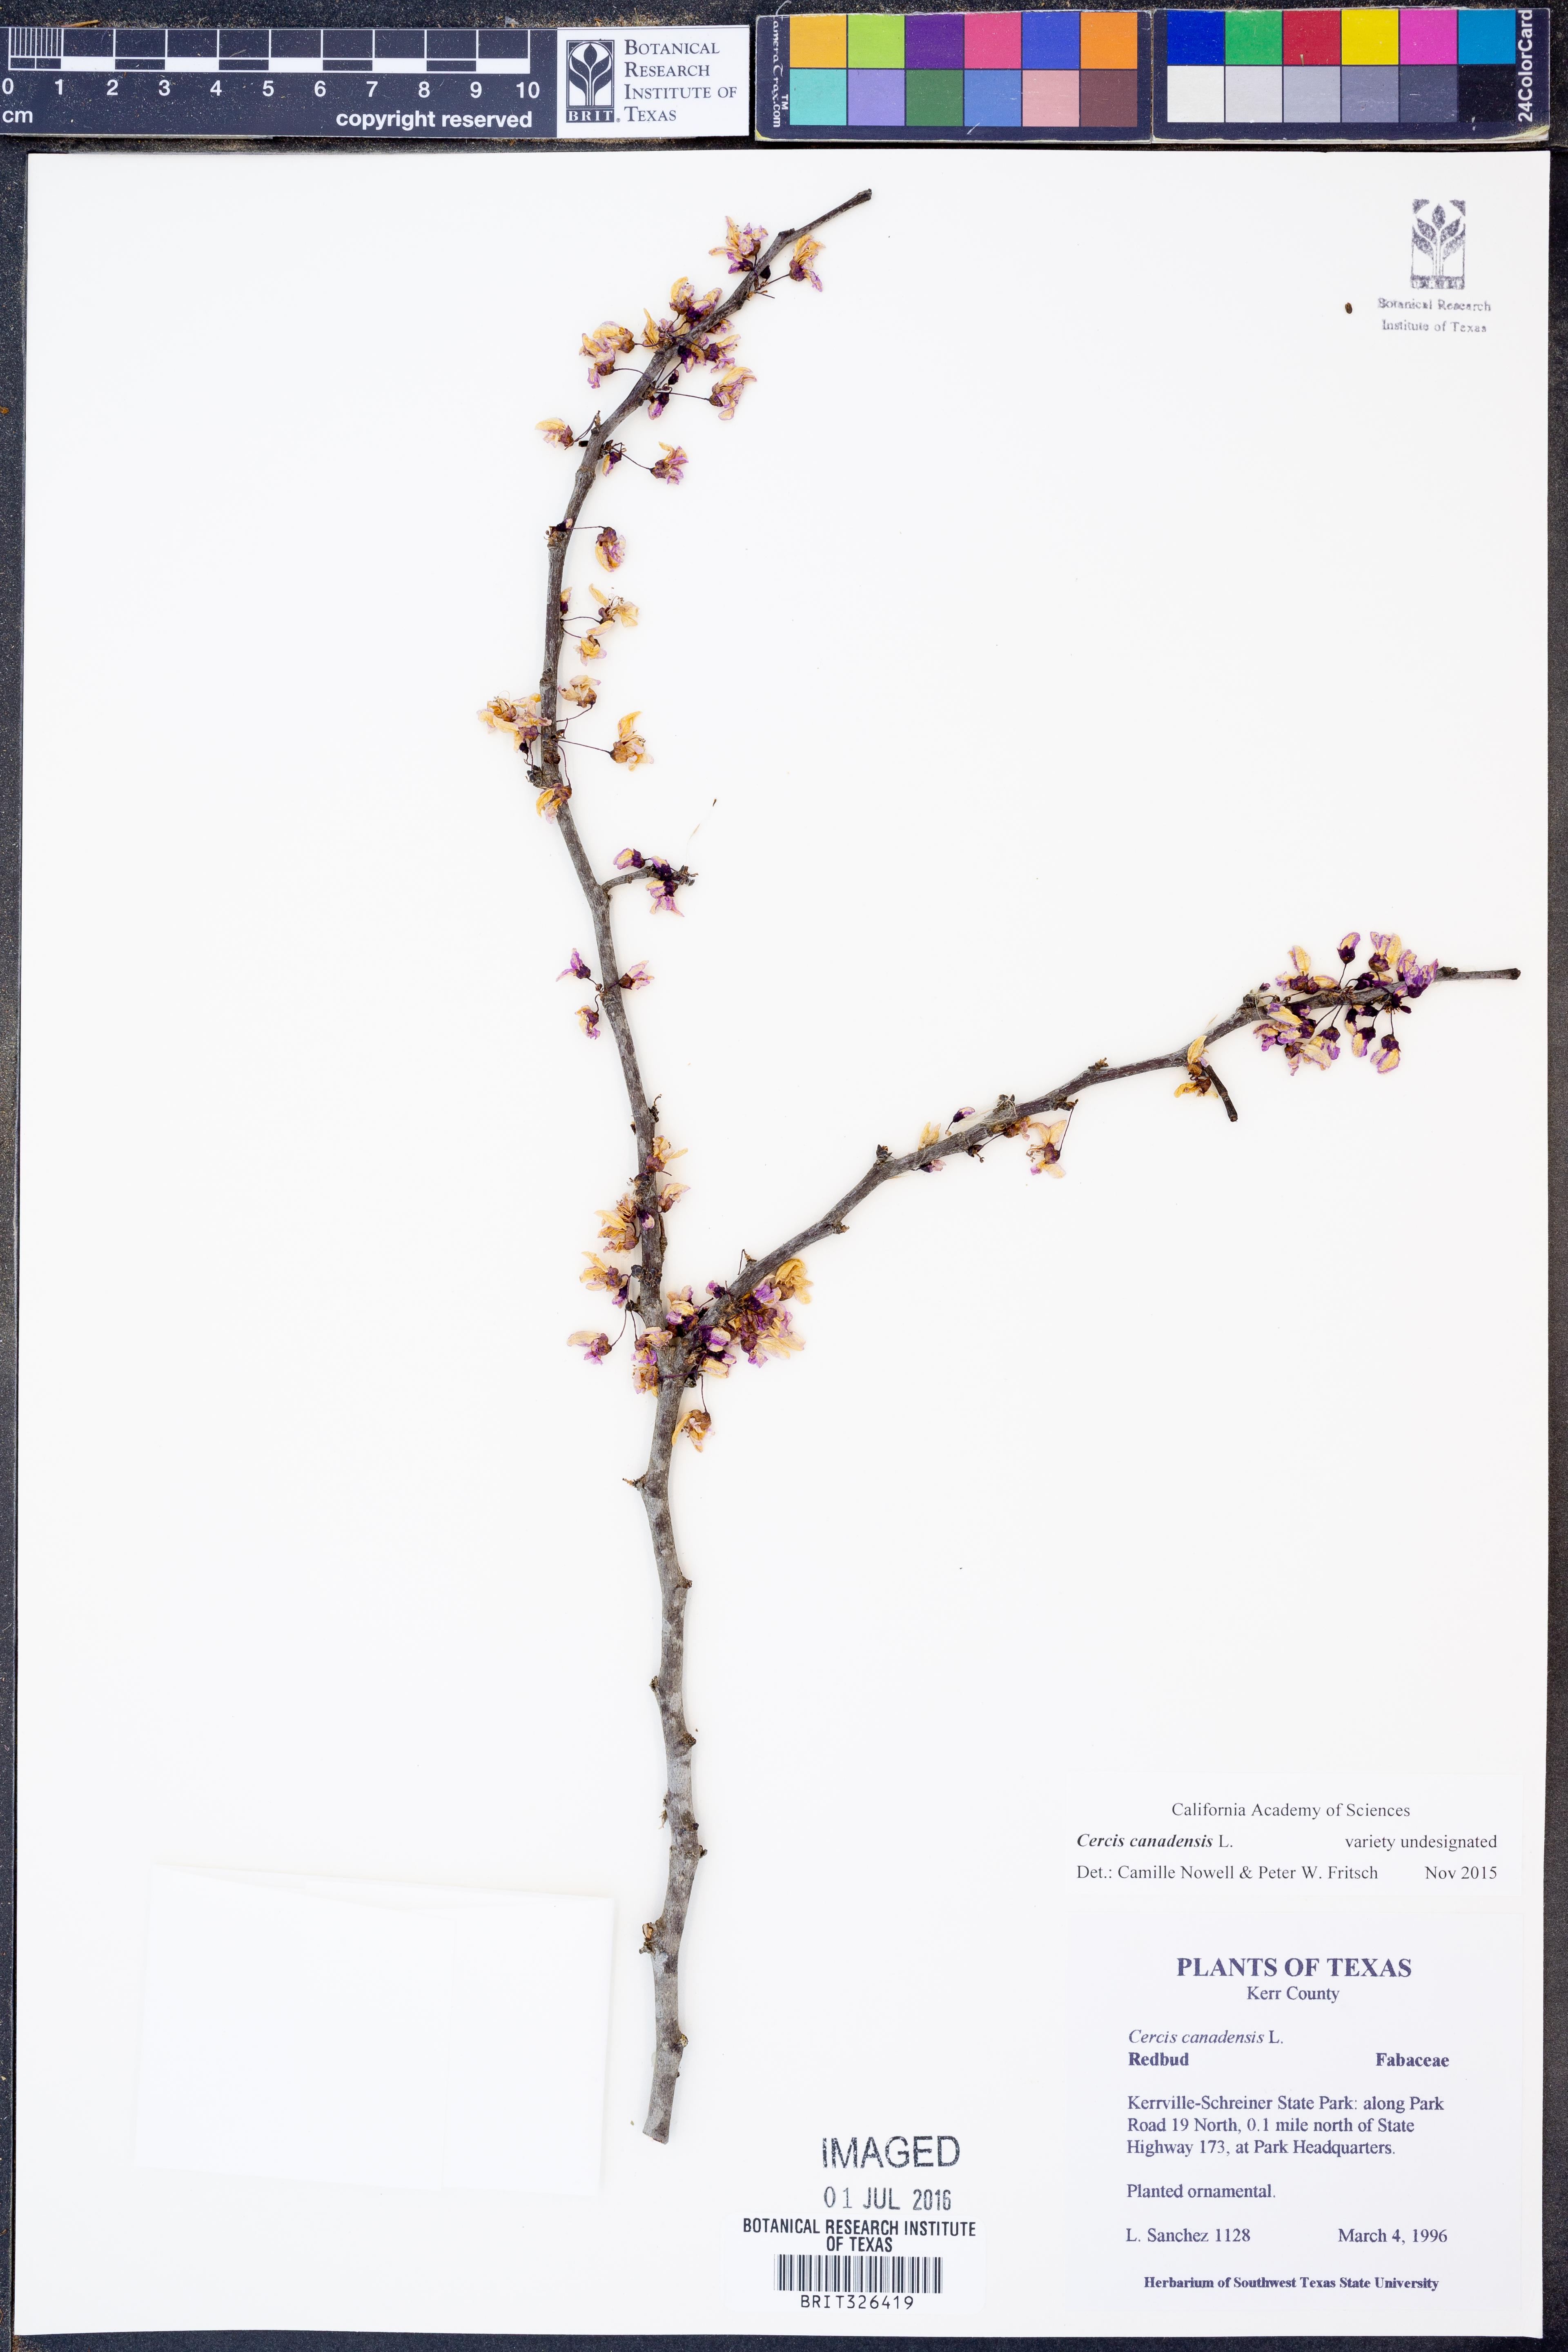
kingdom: Plantae
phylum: Tracheophyta
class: Magnoliopsida
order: Fabales
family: Fabaceae
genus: Cercis
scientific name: Cercis canadensis
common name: Eastern redbud
